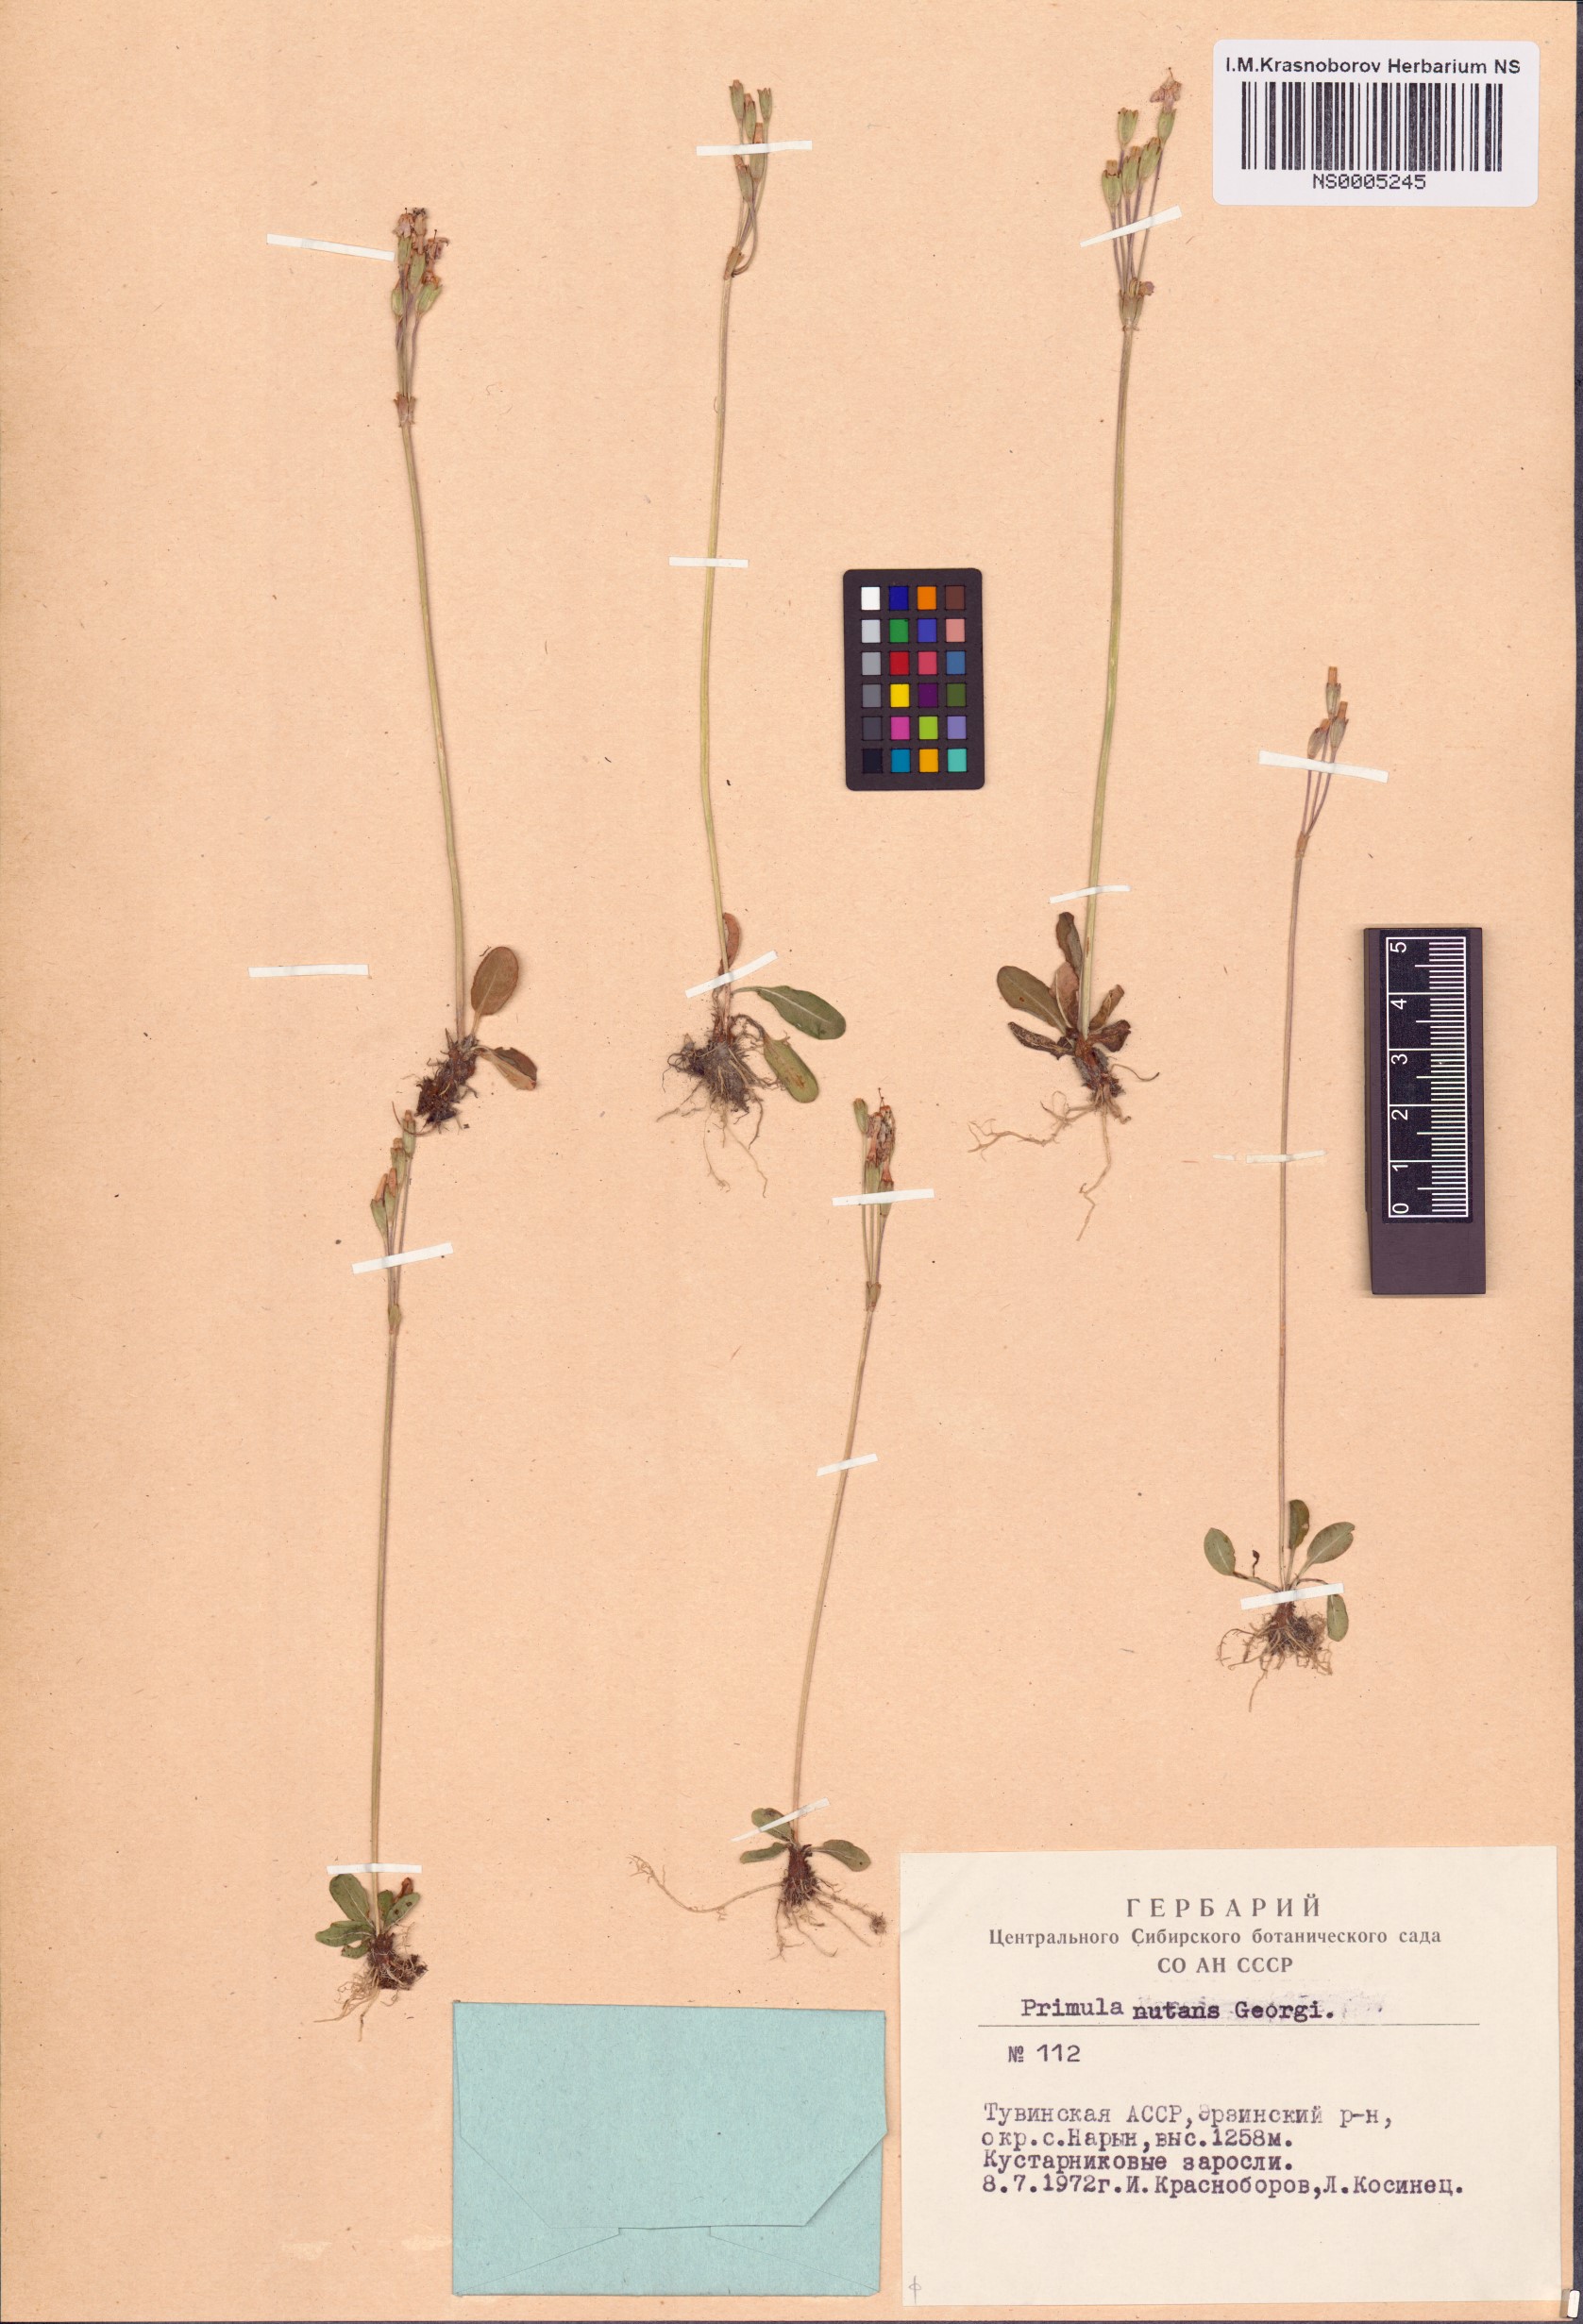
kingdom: Plantae
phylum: Tracheophyta
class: Magnoliopsida
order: Ericales
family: Primulaceae
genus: Primula
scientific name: Primula nutans
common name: Siberian primrose
